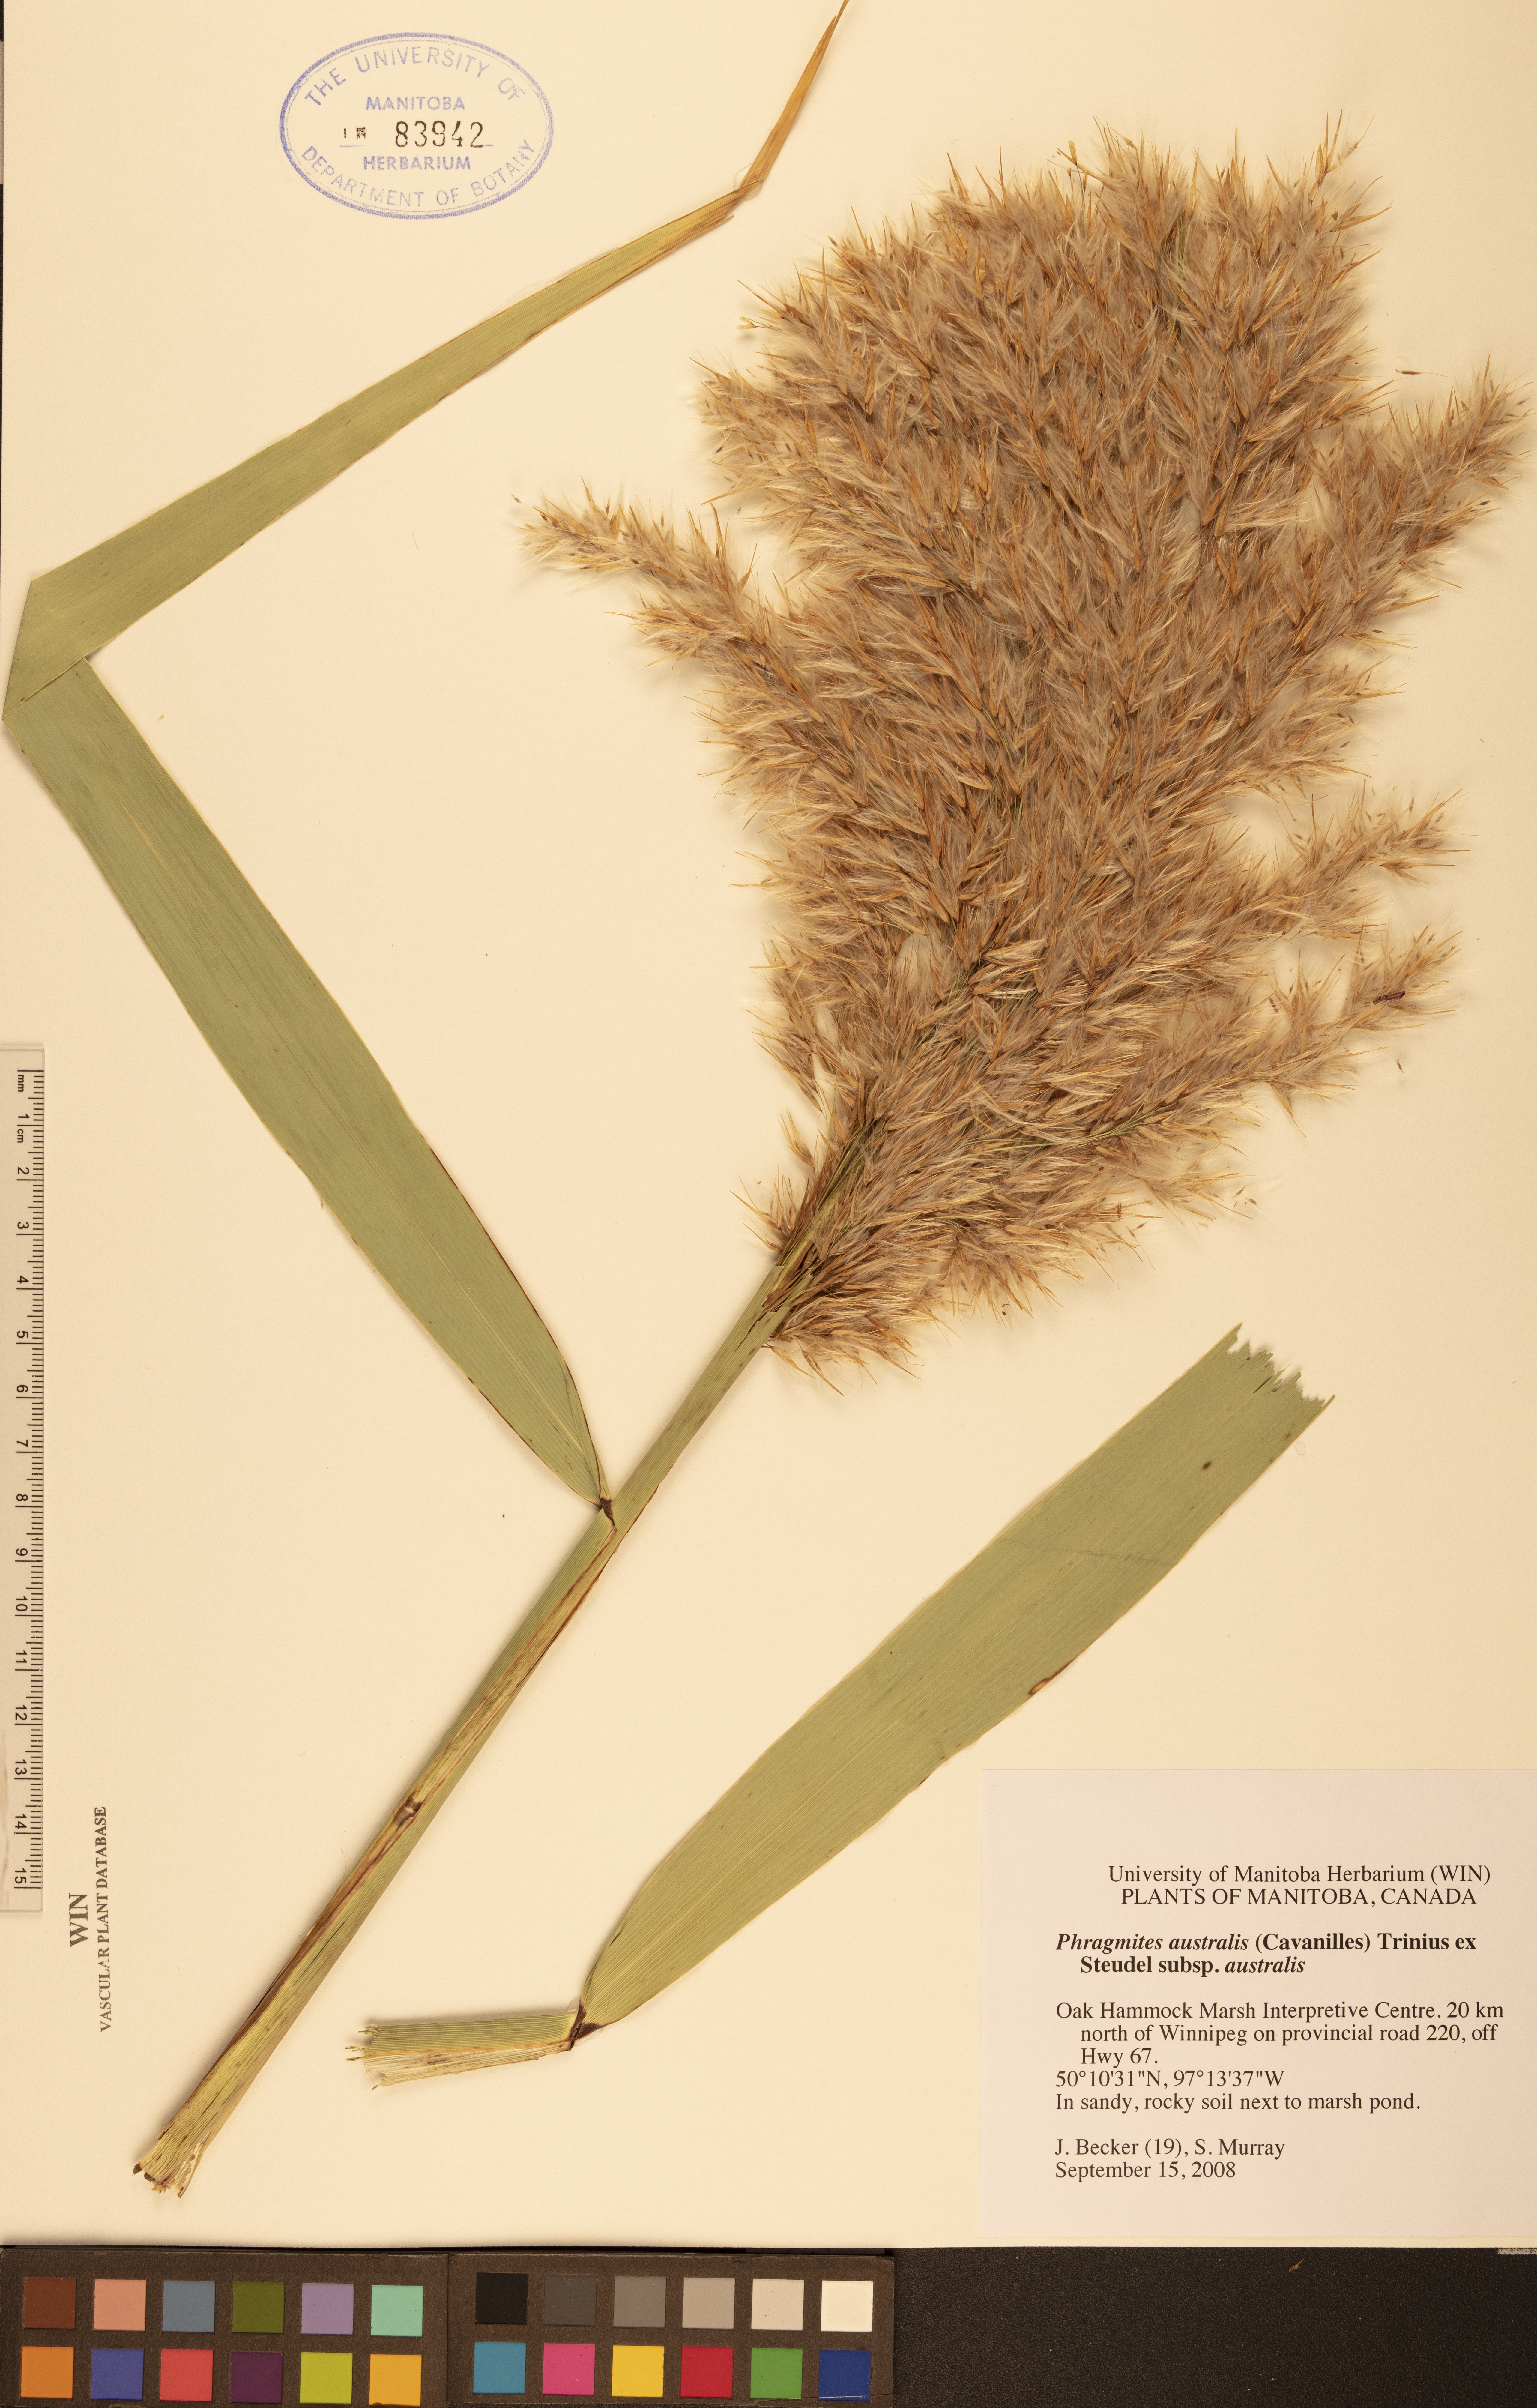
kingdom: Plantae
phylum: Tracheophyta
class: Liliopsida
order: Poales
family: Poaceae
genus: Phragmites
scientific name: Phragmites australis
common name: Common reed
